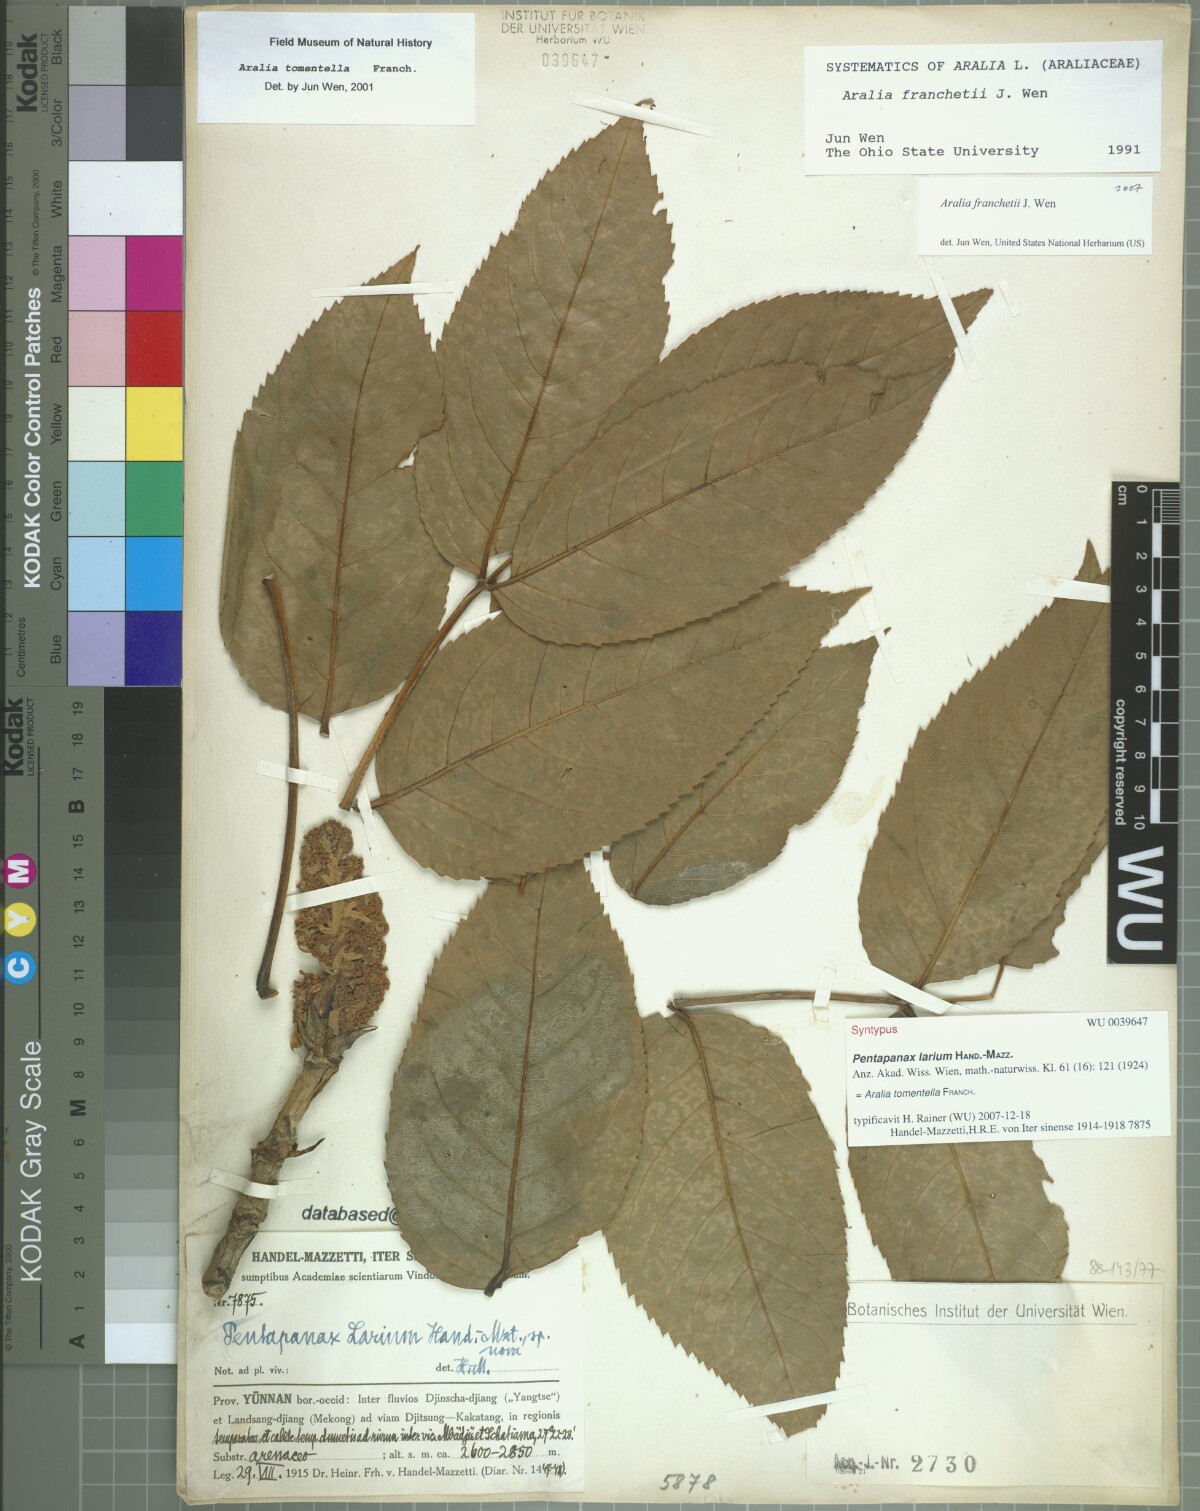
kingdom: Plantae
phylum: Tracheophyta
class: Magnoliopsida
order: Apiales
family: Araliaceae
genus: Aralia
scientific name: Aralia tomentella
